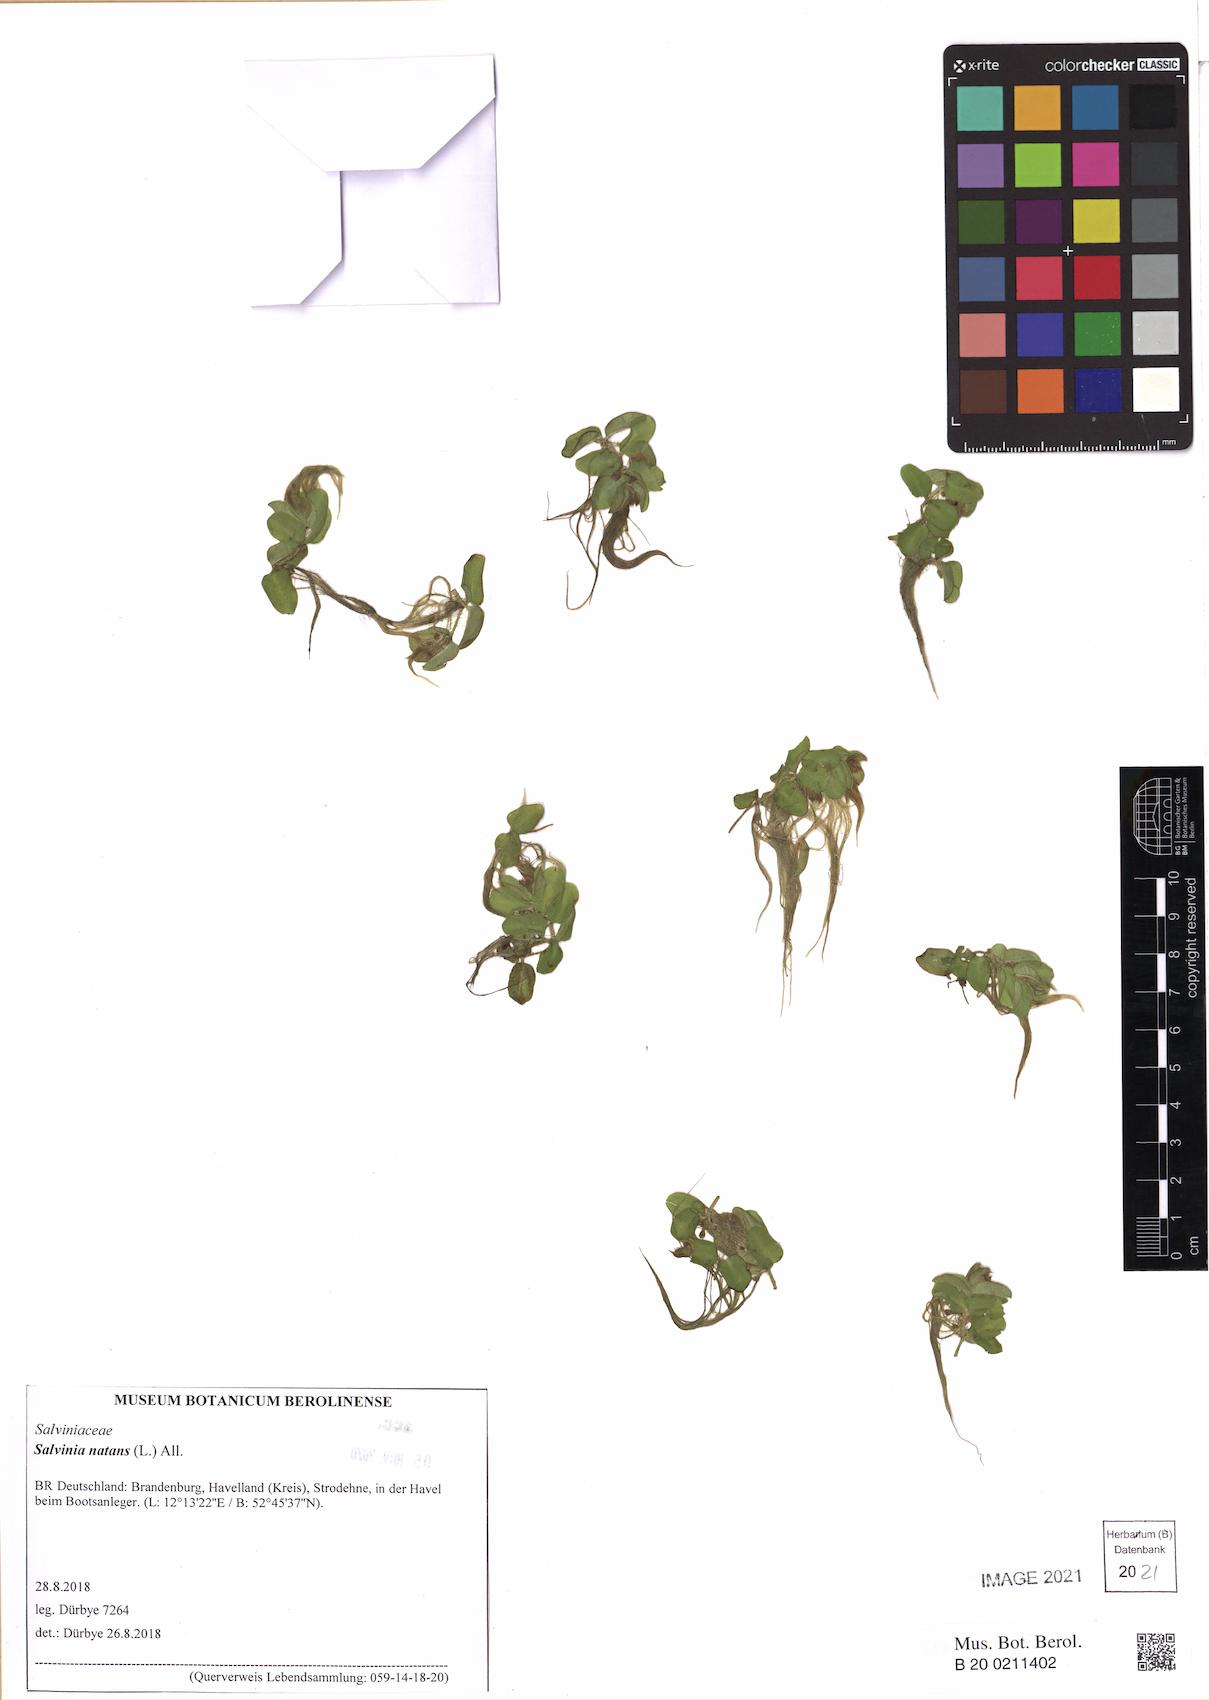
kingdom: Plantae
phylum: Tracheophyta
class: Polypodiopsida
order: Salviniales
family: Salviniaceae
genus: Salvinia
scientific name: Salvinia natans
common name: Floating fern
